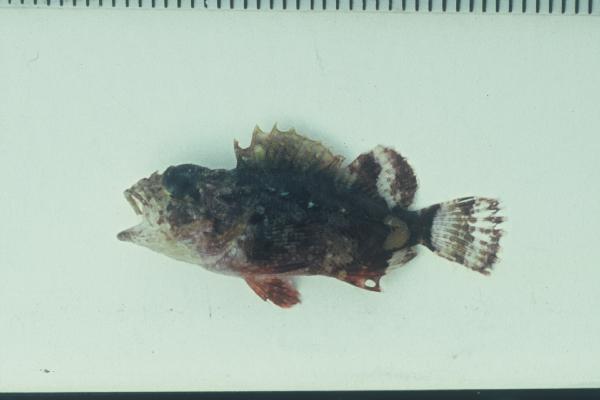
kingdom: Animalia
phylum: Chordata
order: Scorpaeniformes
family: Scorpaenidae
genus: Parascorpaena
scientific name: Parascorpaena mossambica
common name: Mozambique scorpionfish
